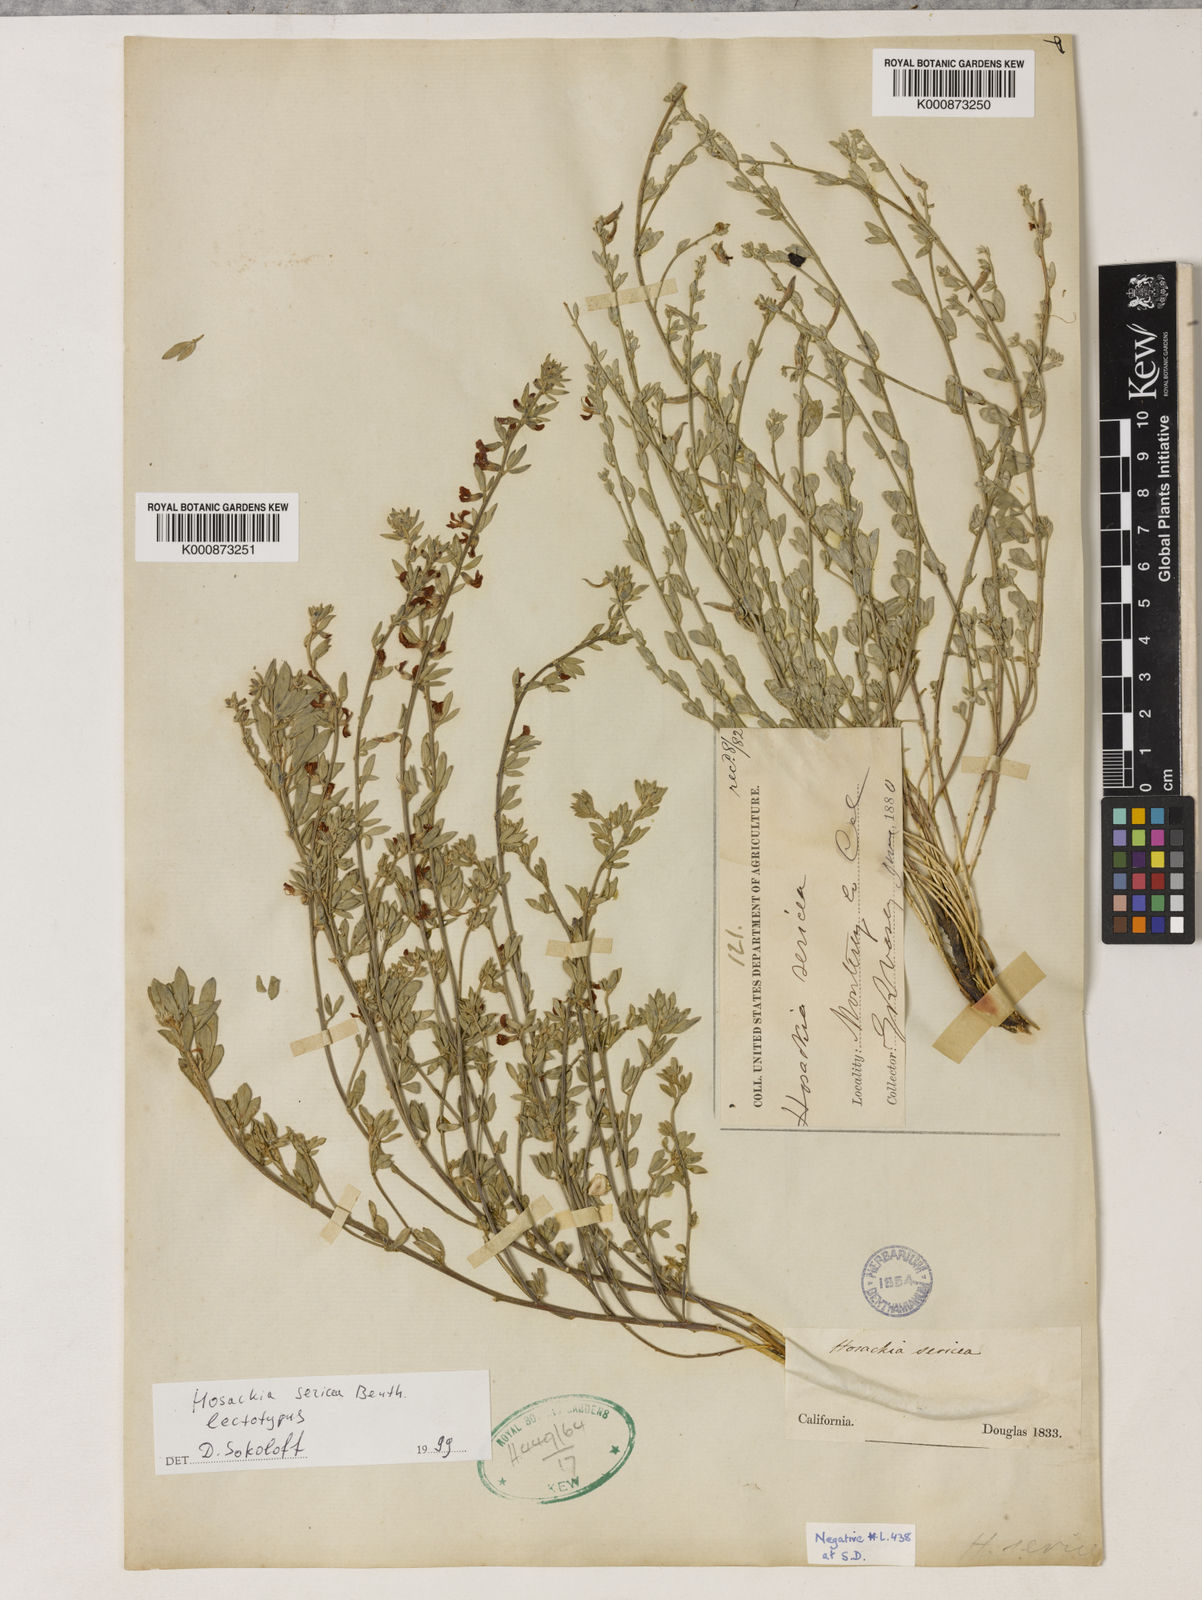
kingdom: Plantae
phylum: Tracheophyta
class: Magnoliopsida
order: Fabales
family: Fabaceae
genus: Acmispon
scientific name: Acmispon procumbens
